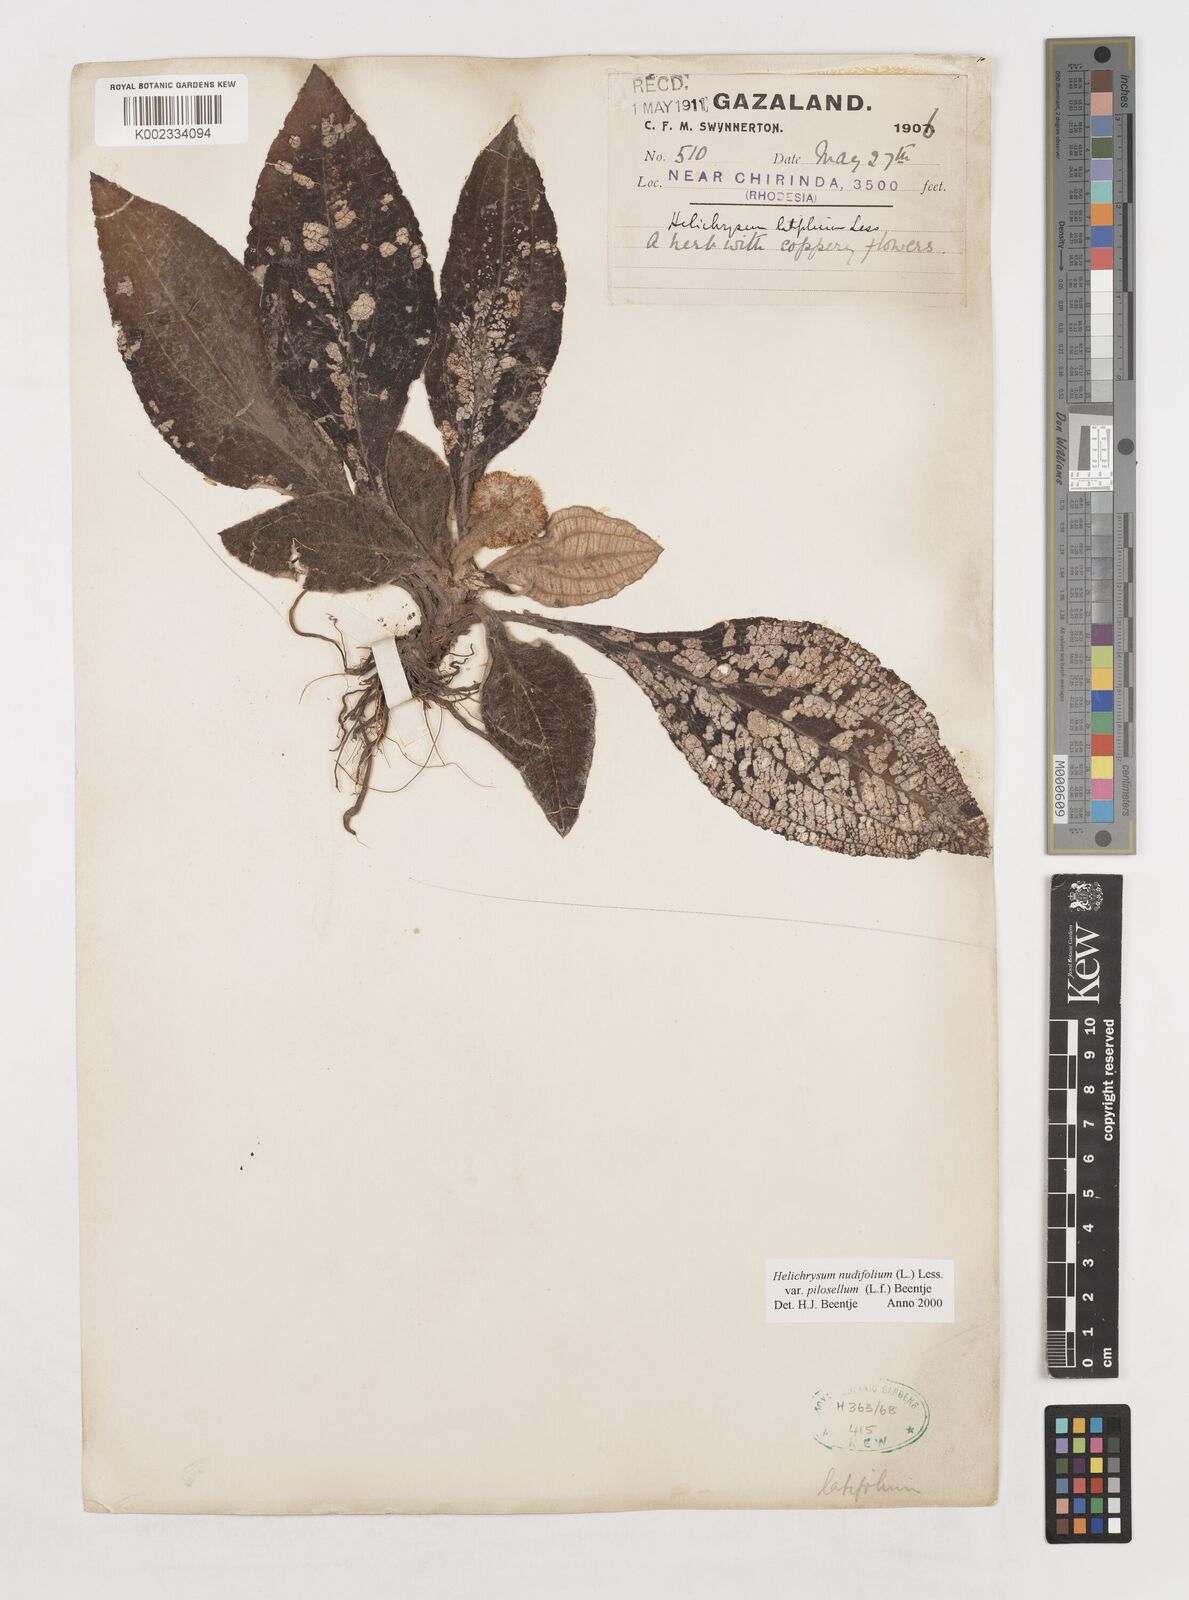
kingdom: Plantae
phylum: Tracheophyta
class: Magnoliopsida
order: Asterales
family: Asteraceae
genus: Helichrysum
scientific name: Helichrysum nudifolium
